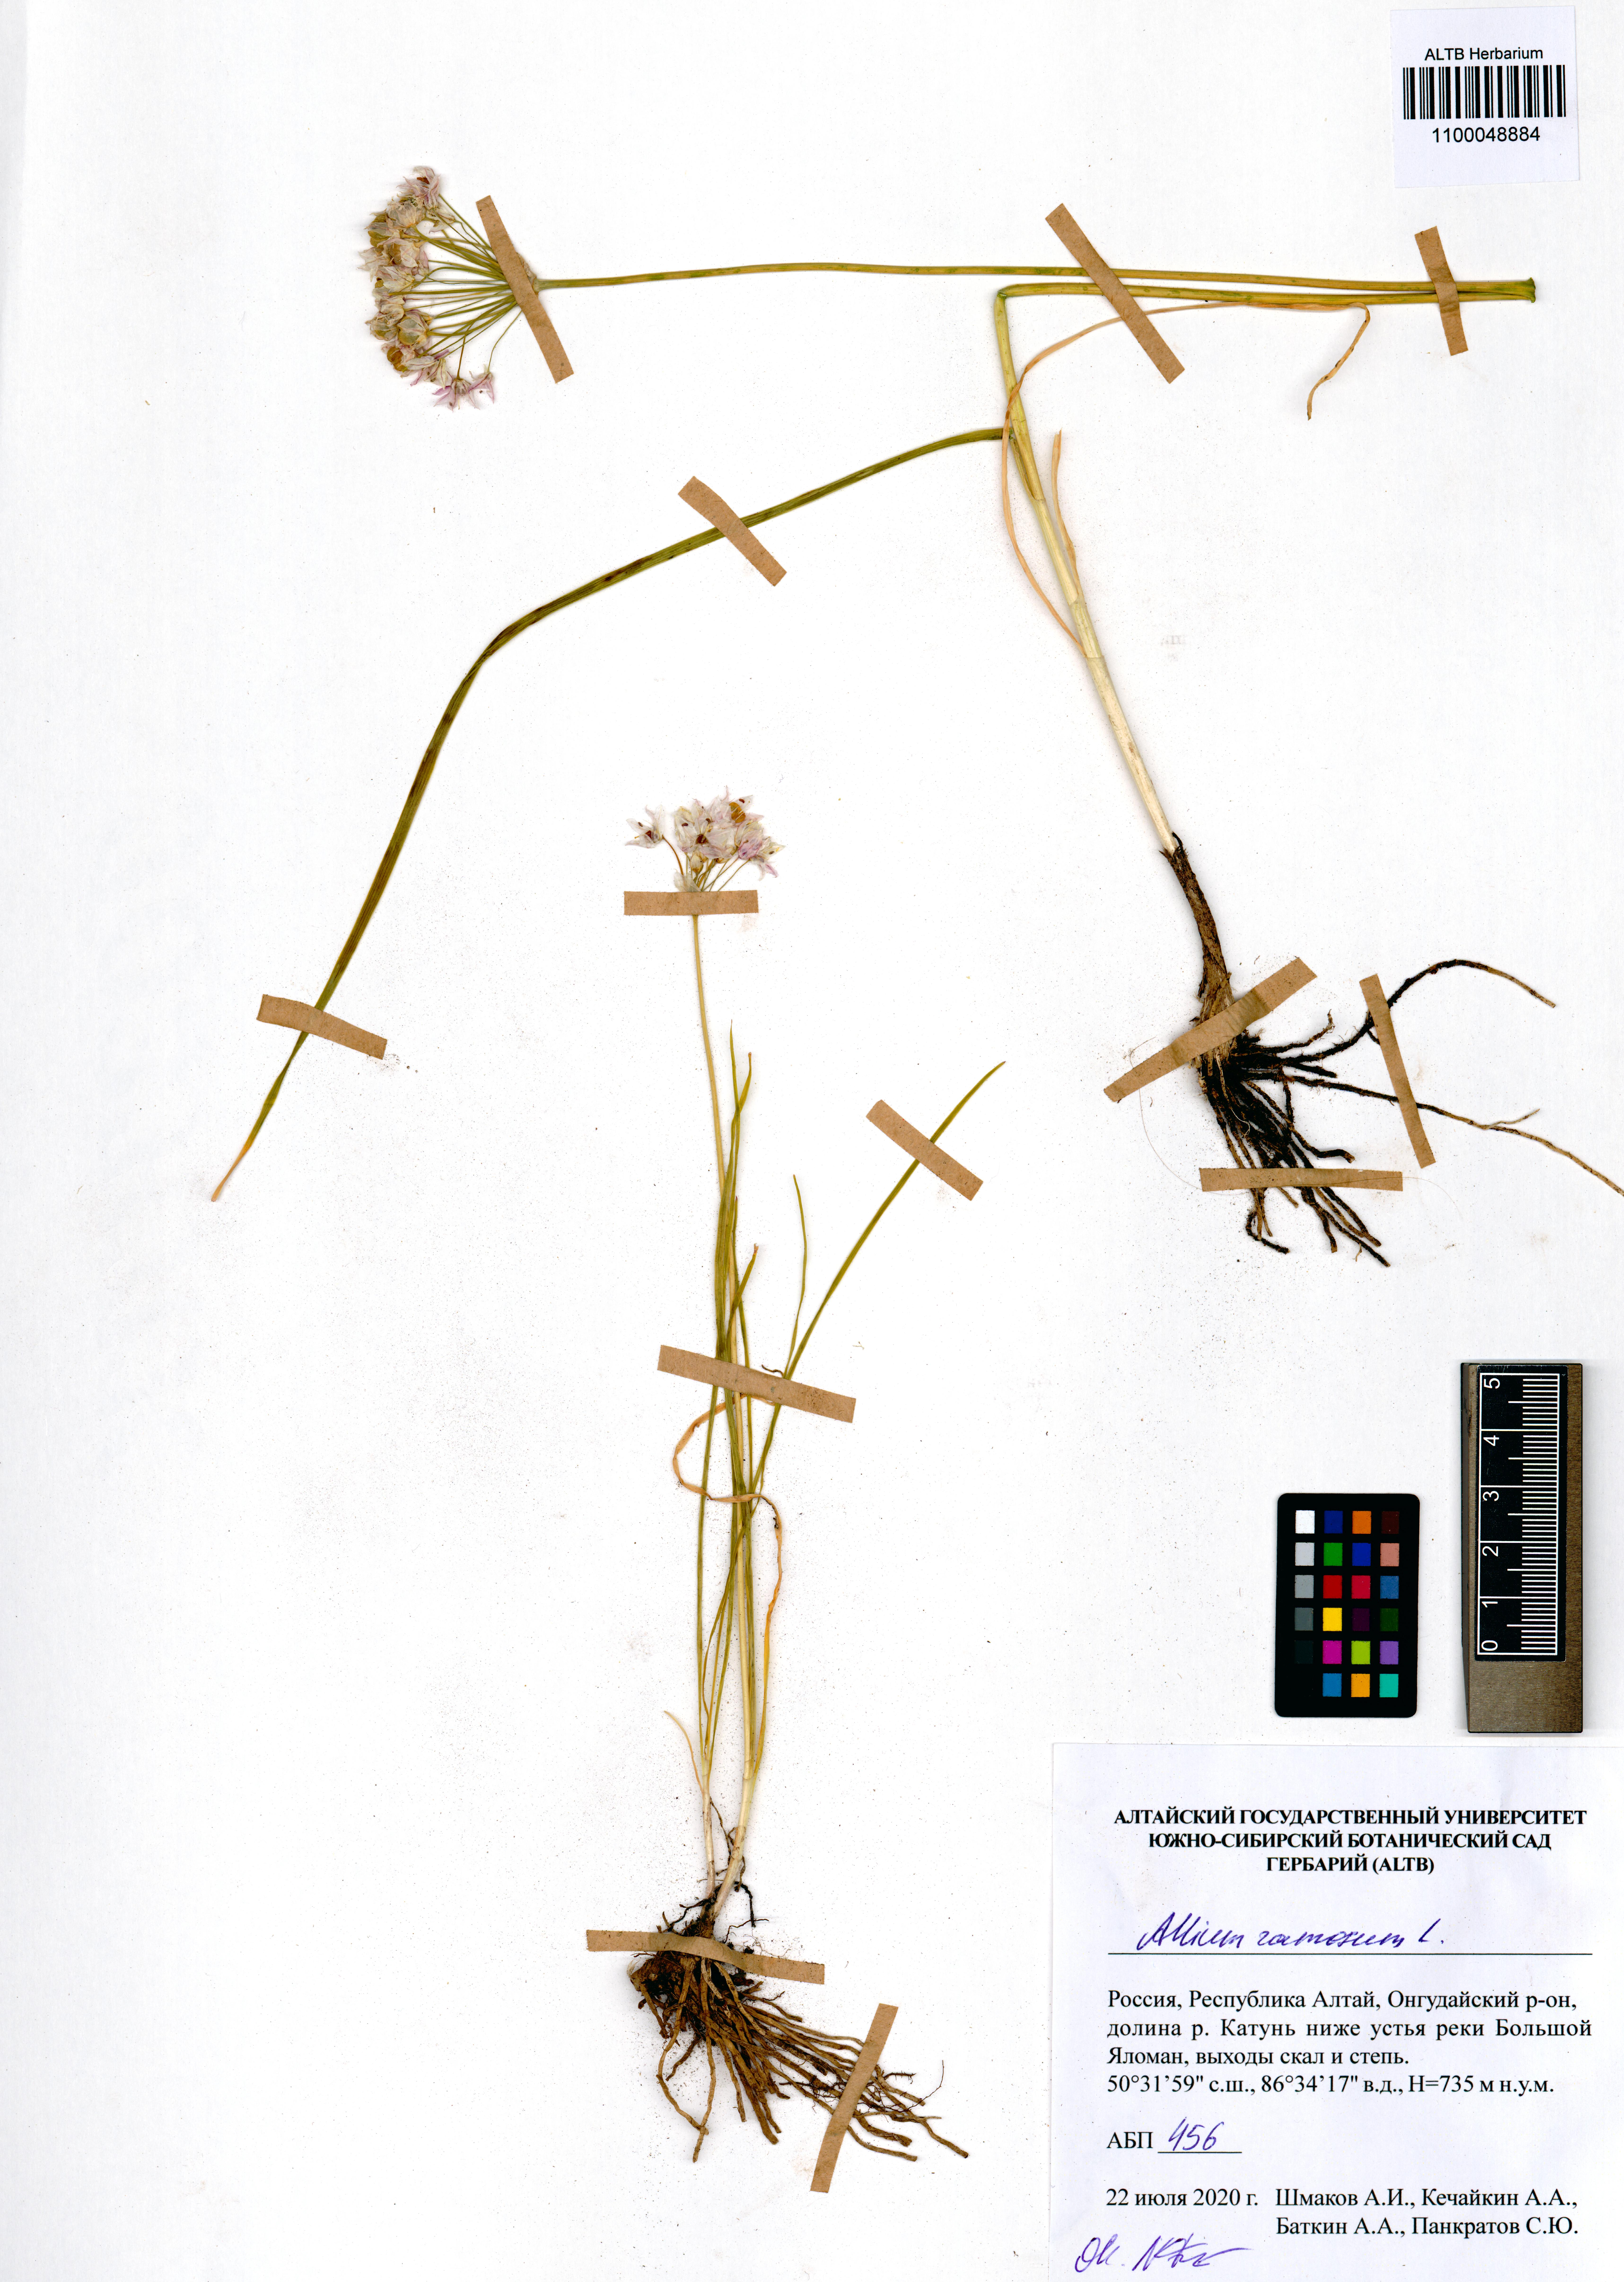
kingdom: Plantae
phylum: Tracheophyta
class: Liliopsida
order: Asparagales
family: Amaryllidaceae
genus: Allium
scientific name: Allium ramosum
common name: Fragrant garlic
